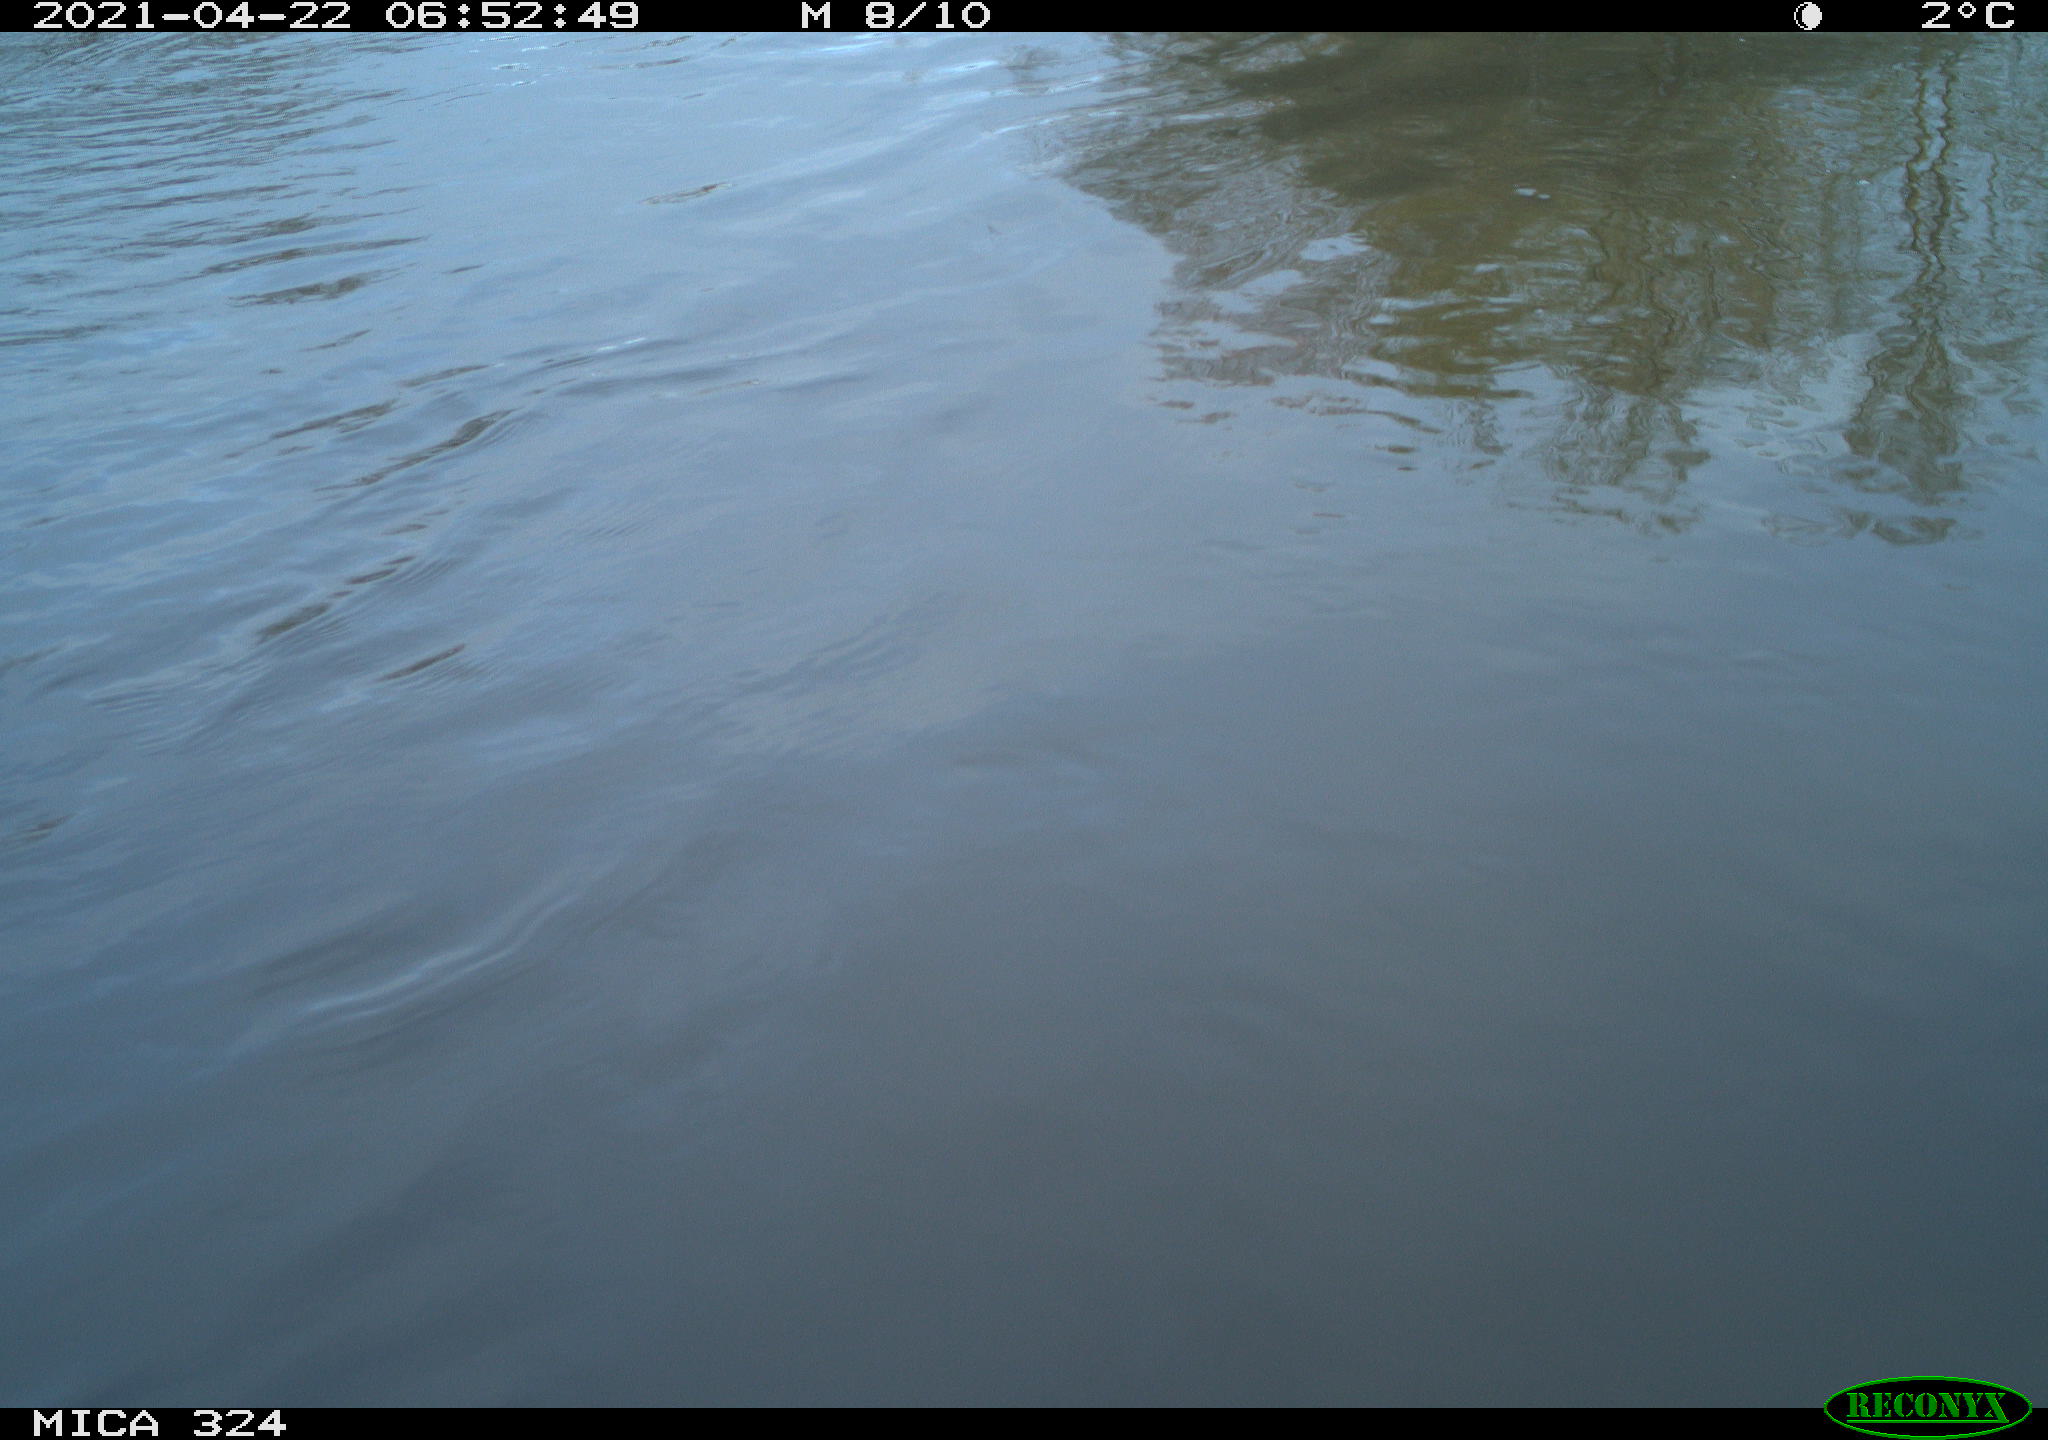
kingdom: Animalia
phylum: Chordata
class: Aves
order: Gruiformes
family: Rallidae
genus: Fulica
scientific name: Fulica atra
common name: Eurasian coot
